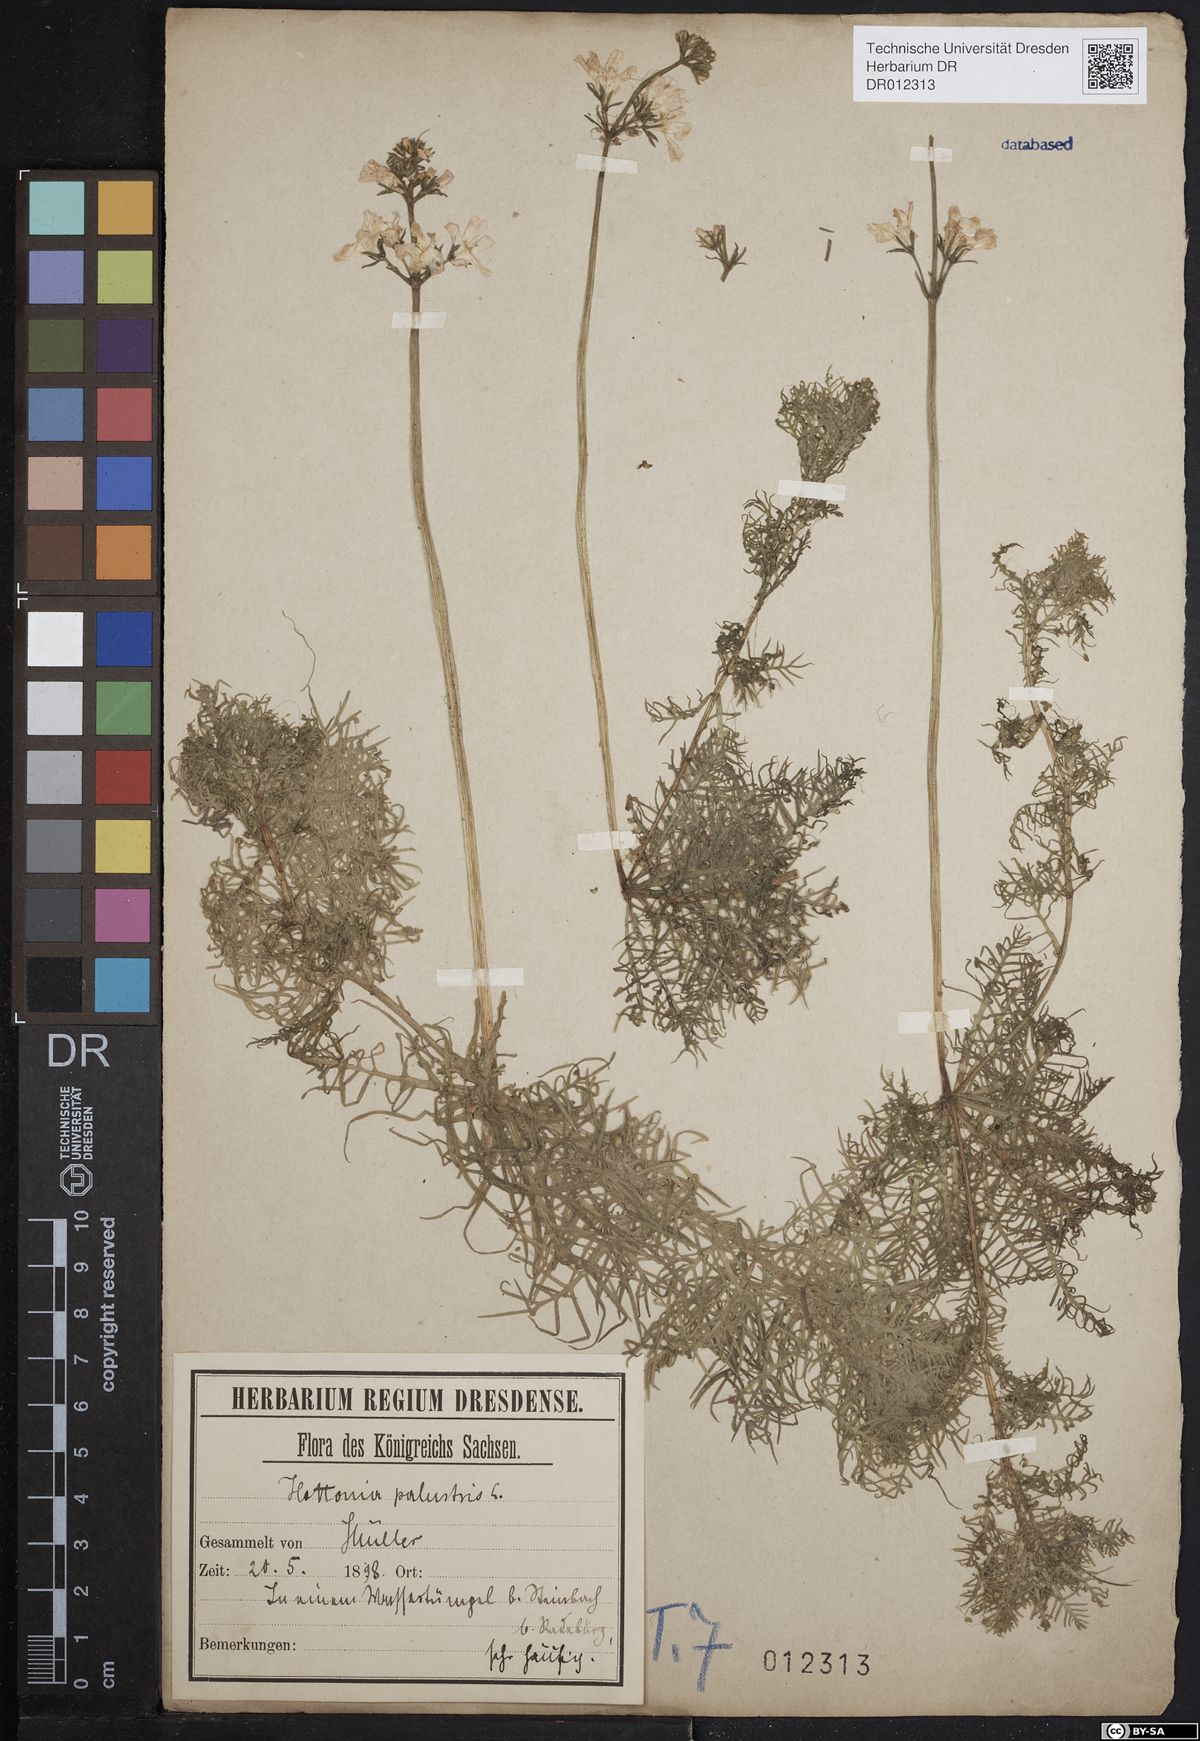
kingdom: Plantae
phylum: Tracheophyta
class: Magnoliopsida
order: Ericales
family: Primulaceae
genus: Hottonia
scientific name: Hottonia palustris
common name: Water-violet
